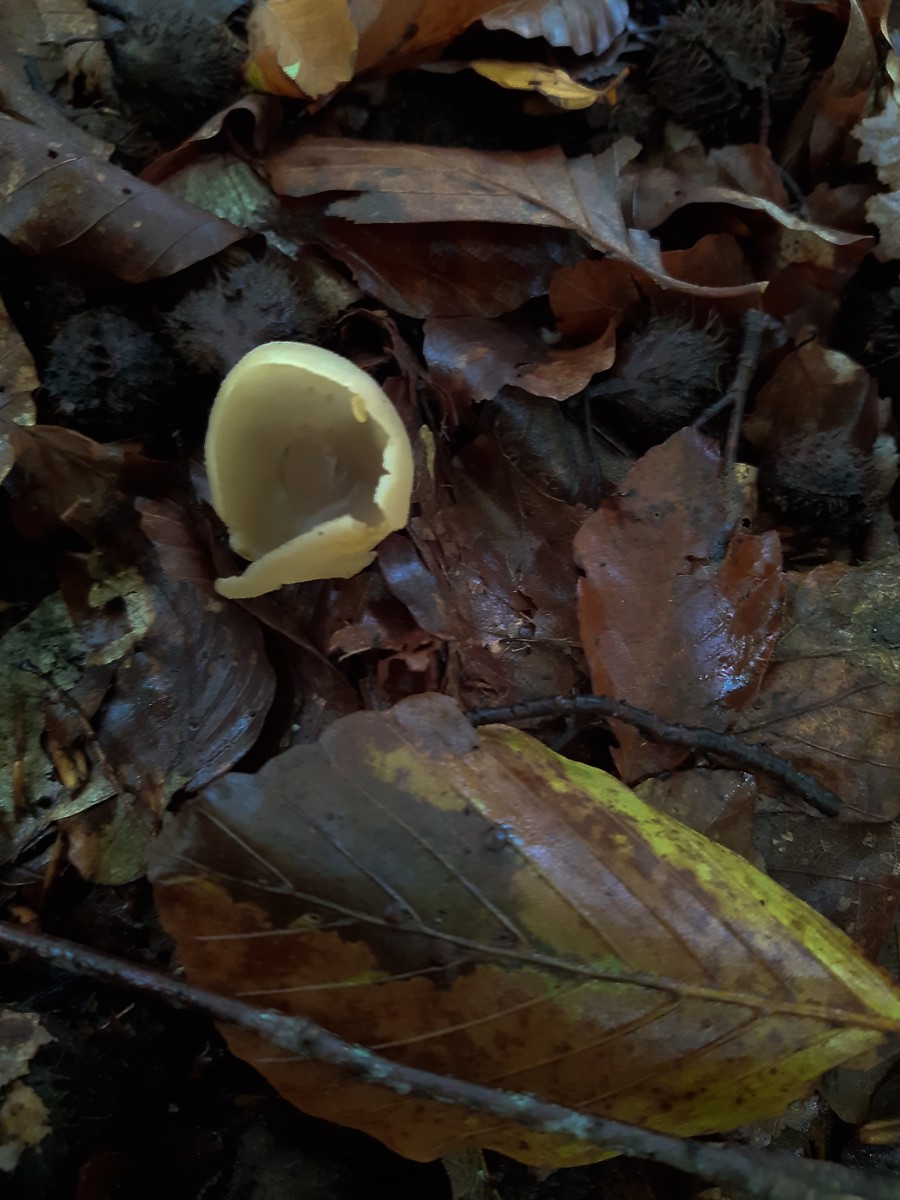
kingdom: Fungi
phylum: Ascomycota
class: Pezizomycetes
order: Pezizales
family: Pezizaceae
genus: Peziza
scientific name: Peziza
